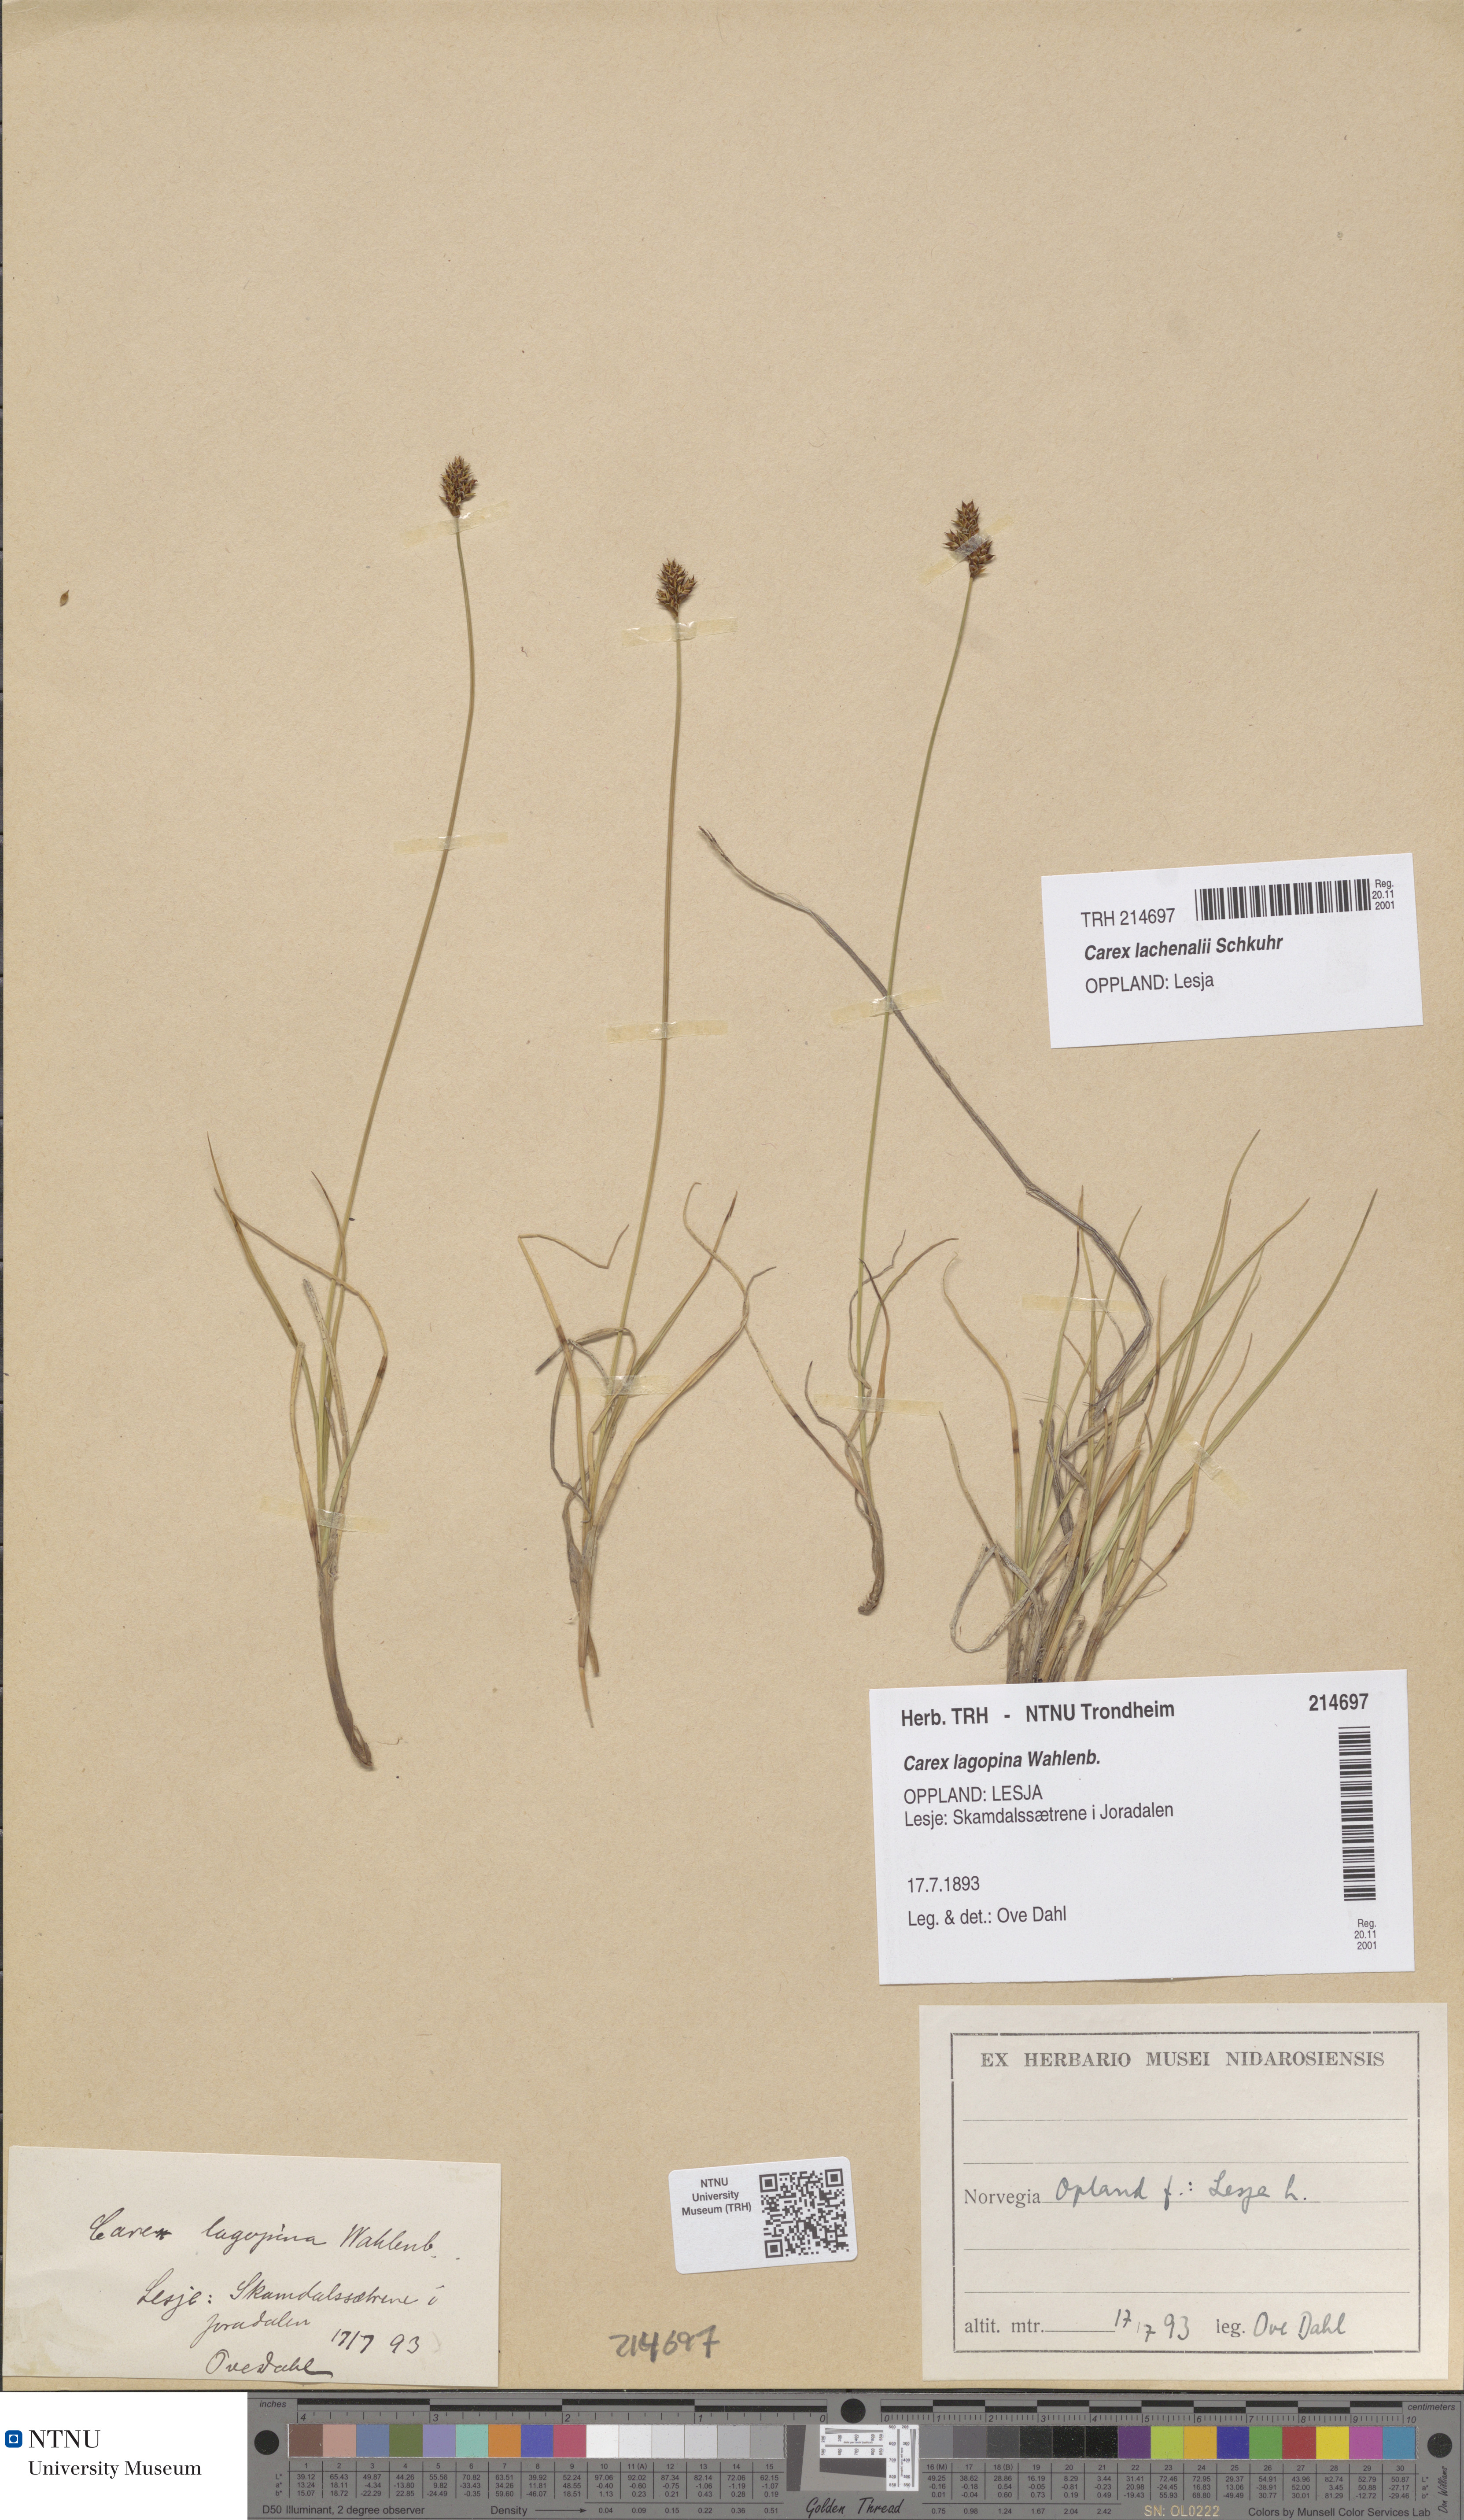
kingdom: Plantae
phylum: Tracheophyta
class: Liliopsida
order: Poales
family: Cyperaceae
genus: Carex
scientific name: Carex lachenalii
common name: Hare's-foot sedge
